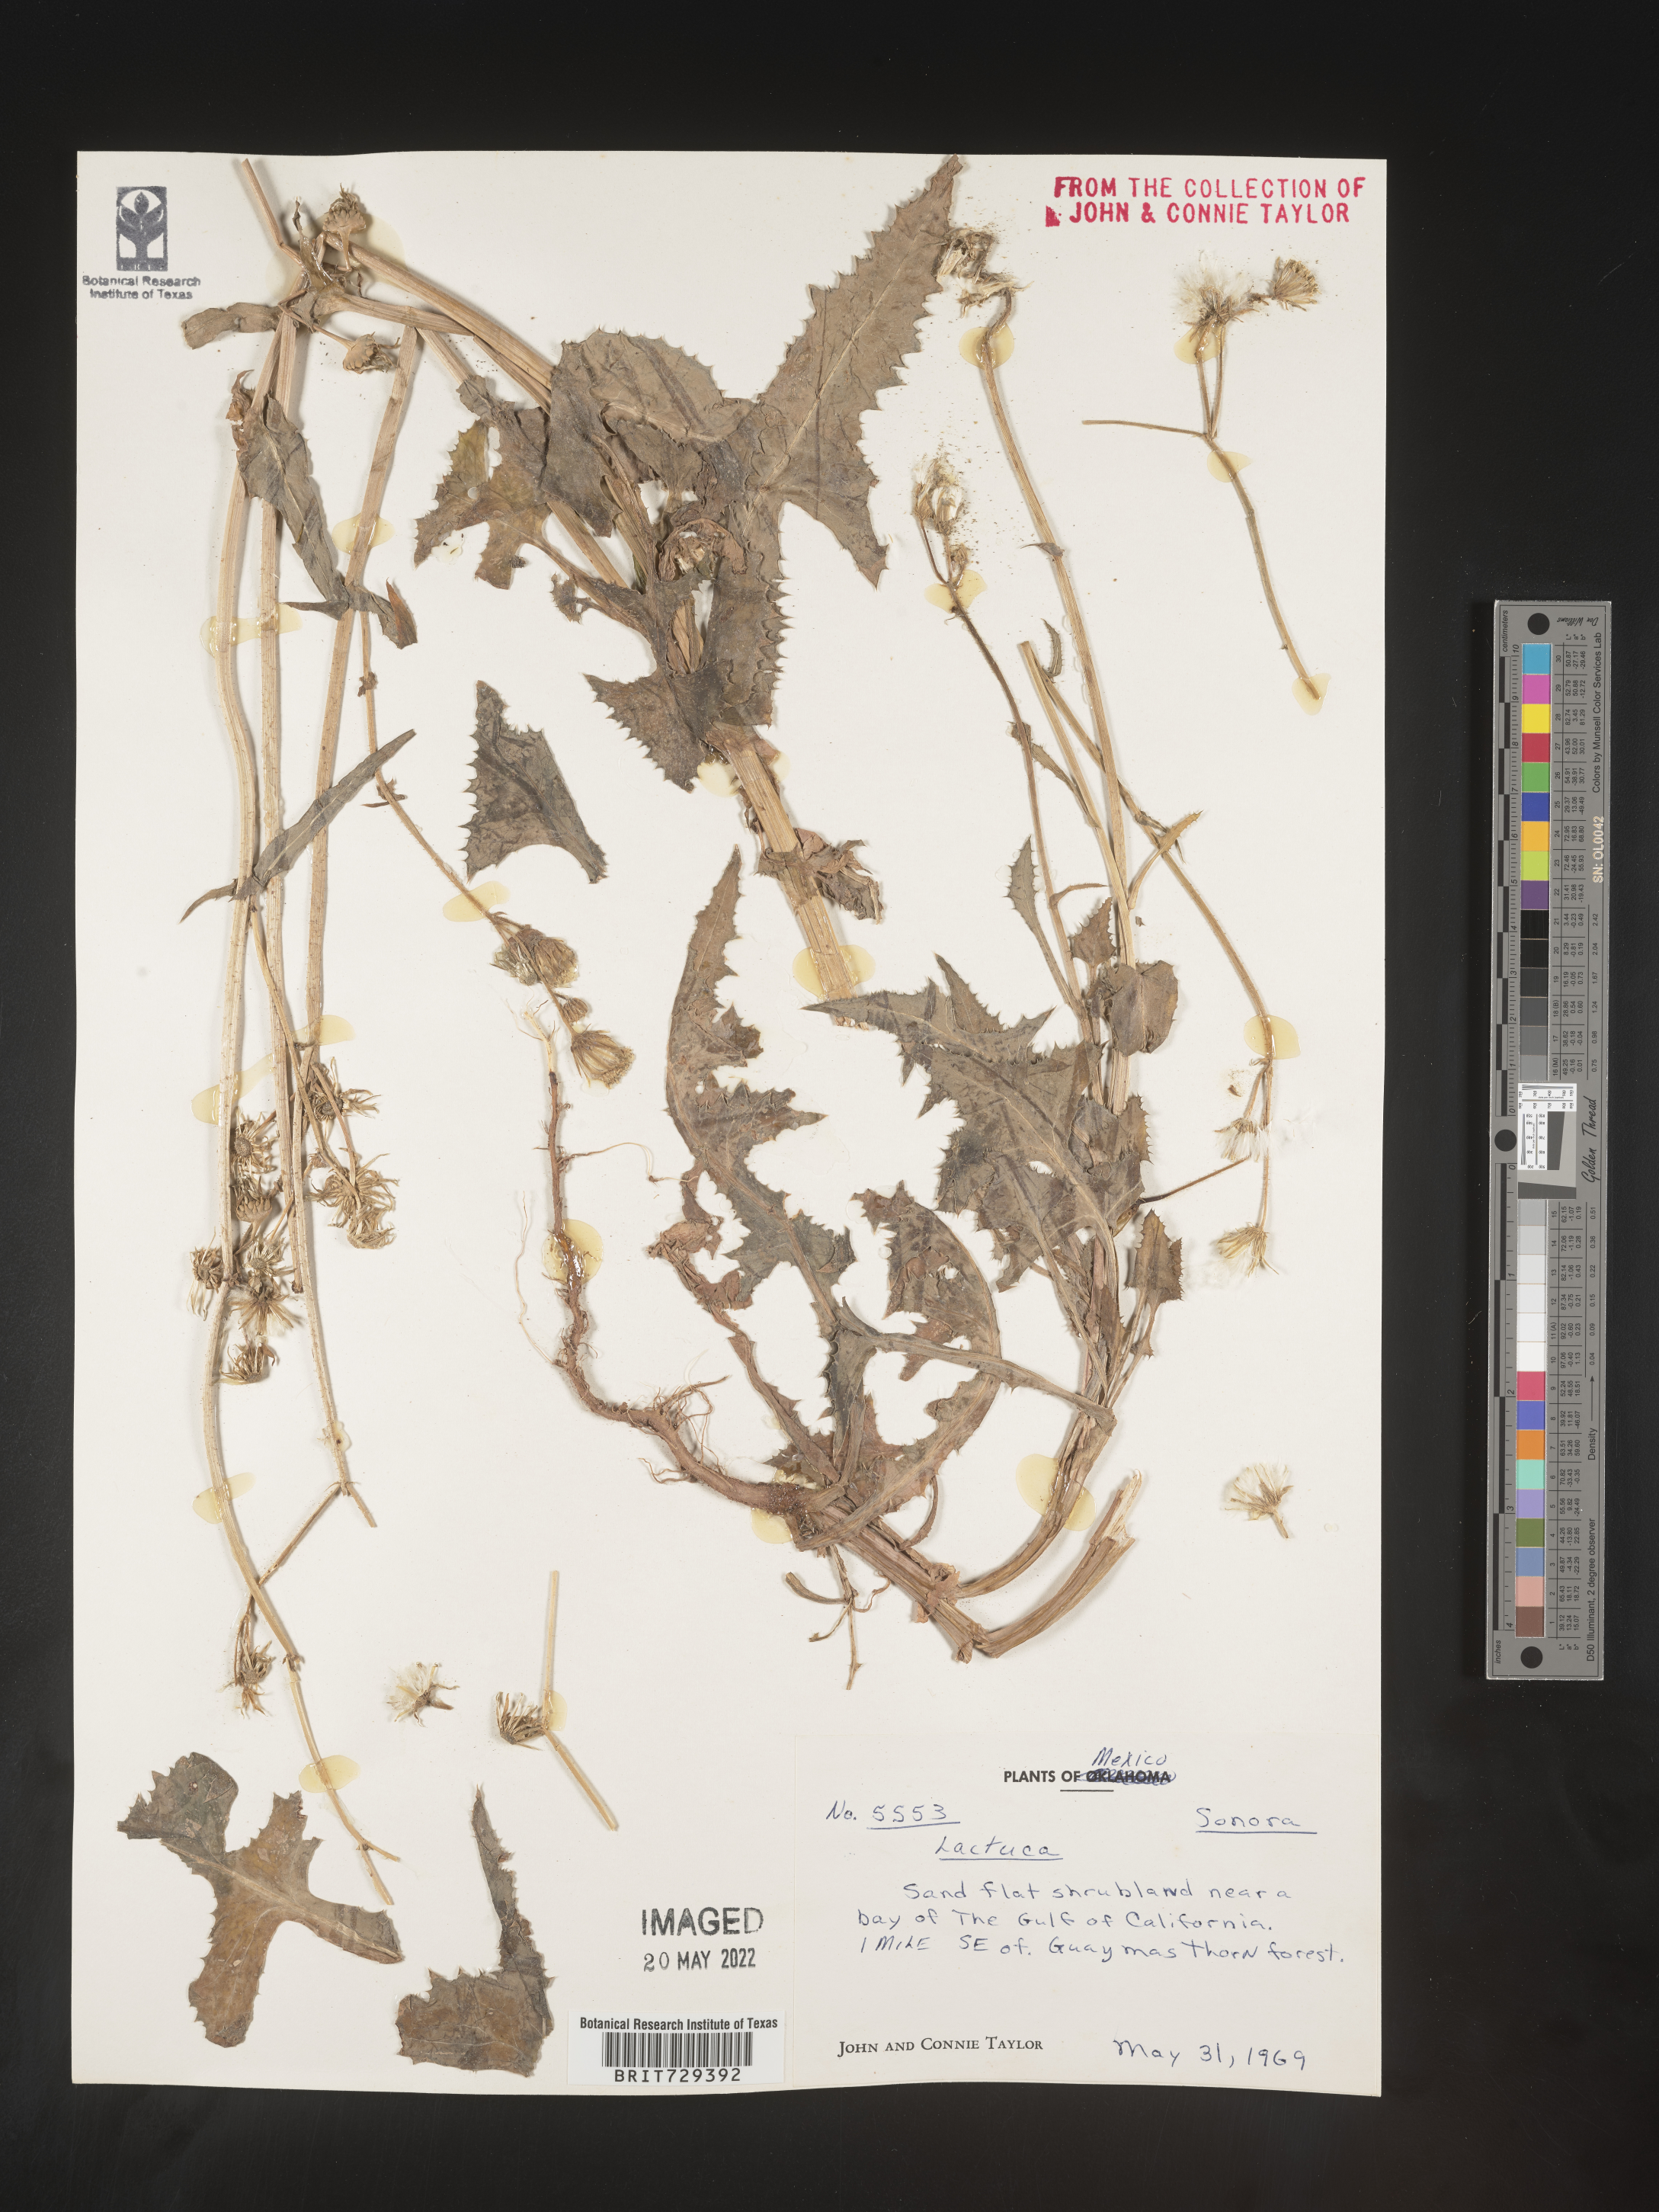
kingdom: Plantae
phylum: Tracheophyta
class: Magnoliopsida
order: Asterales
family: Asteraceae
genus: Lactuca
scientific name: Lactuca
